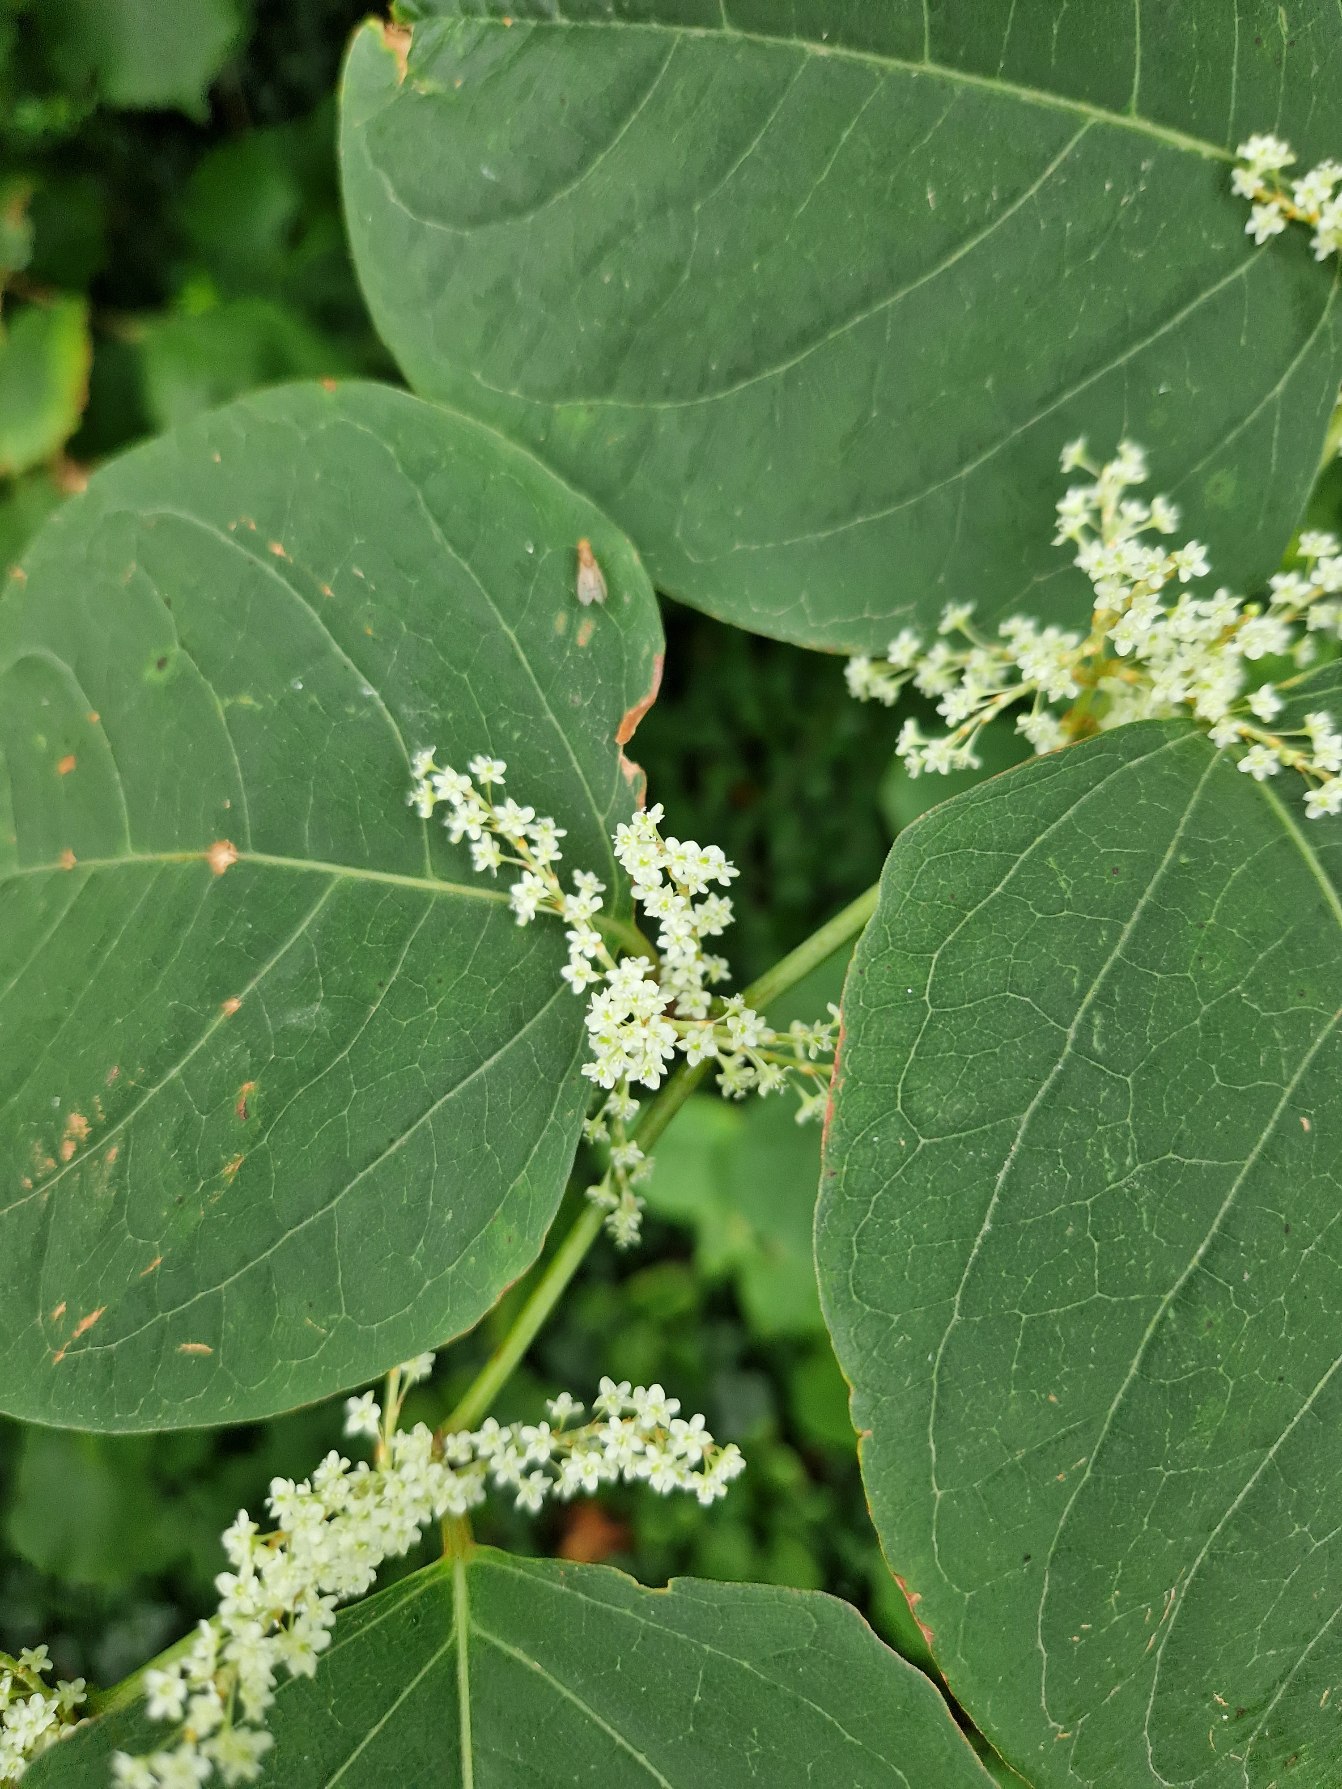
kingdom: Plantae
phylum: Tracheophyta
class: Magnoliopsida
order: Caryophyllales
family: Polygonaceae
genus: Reynoutria
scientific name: Reynoutria japonica
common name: Japan-pileurt
